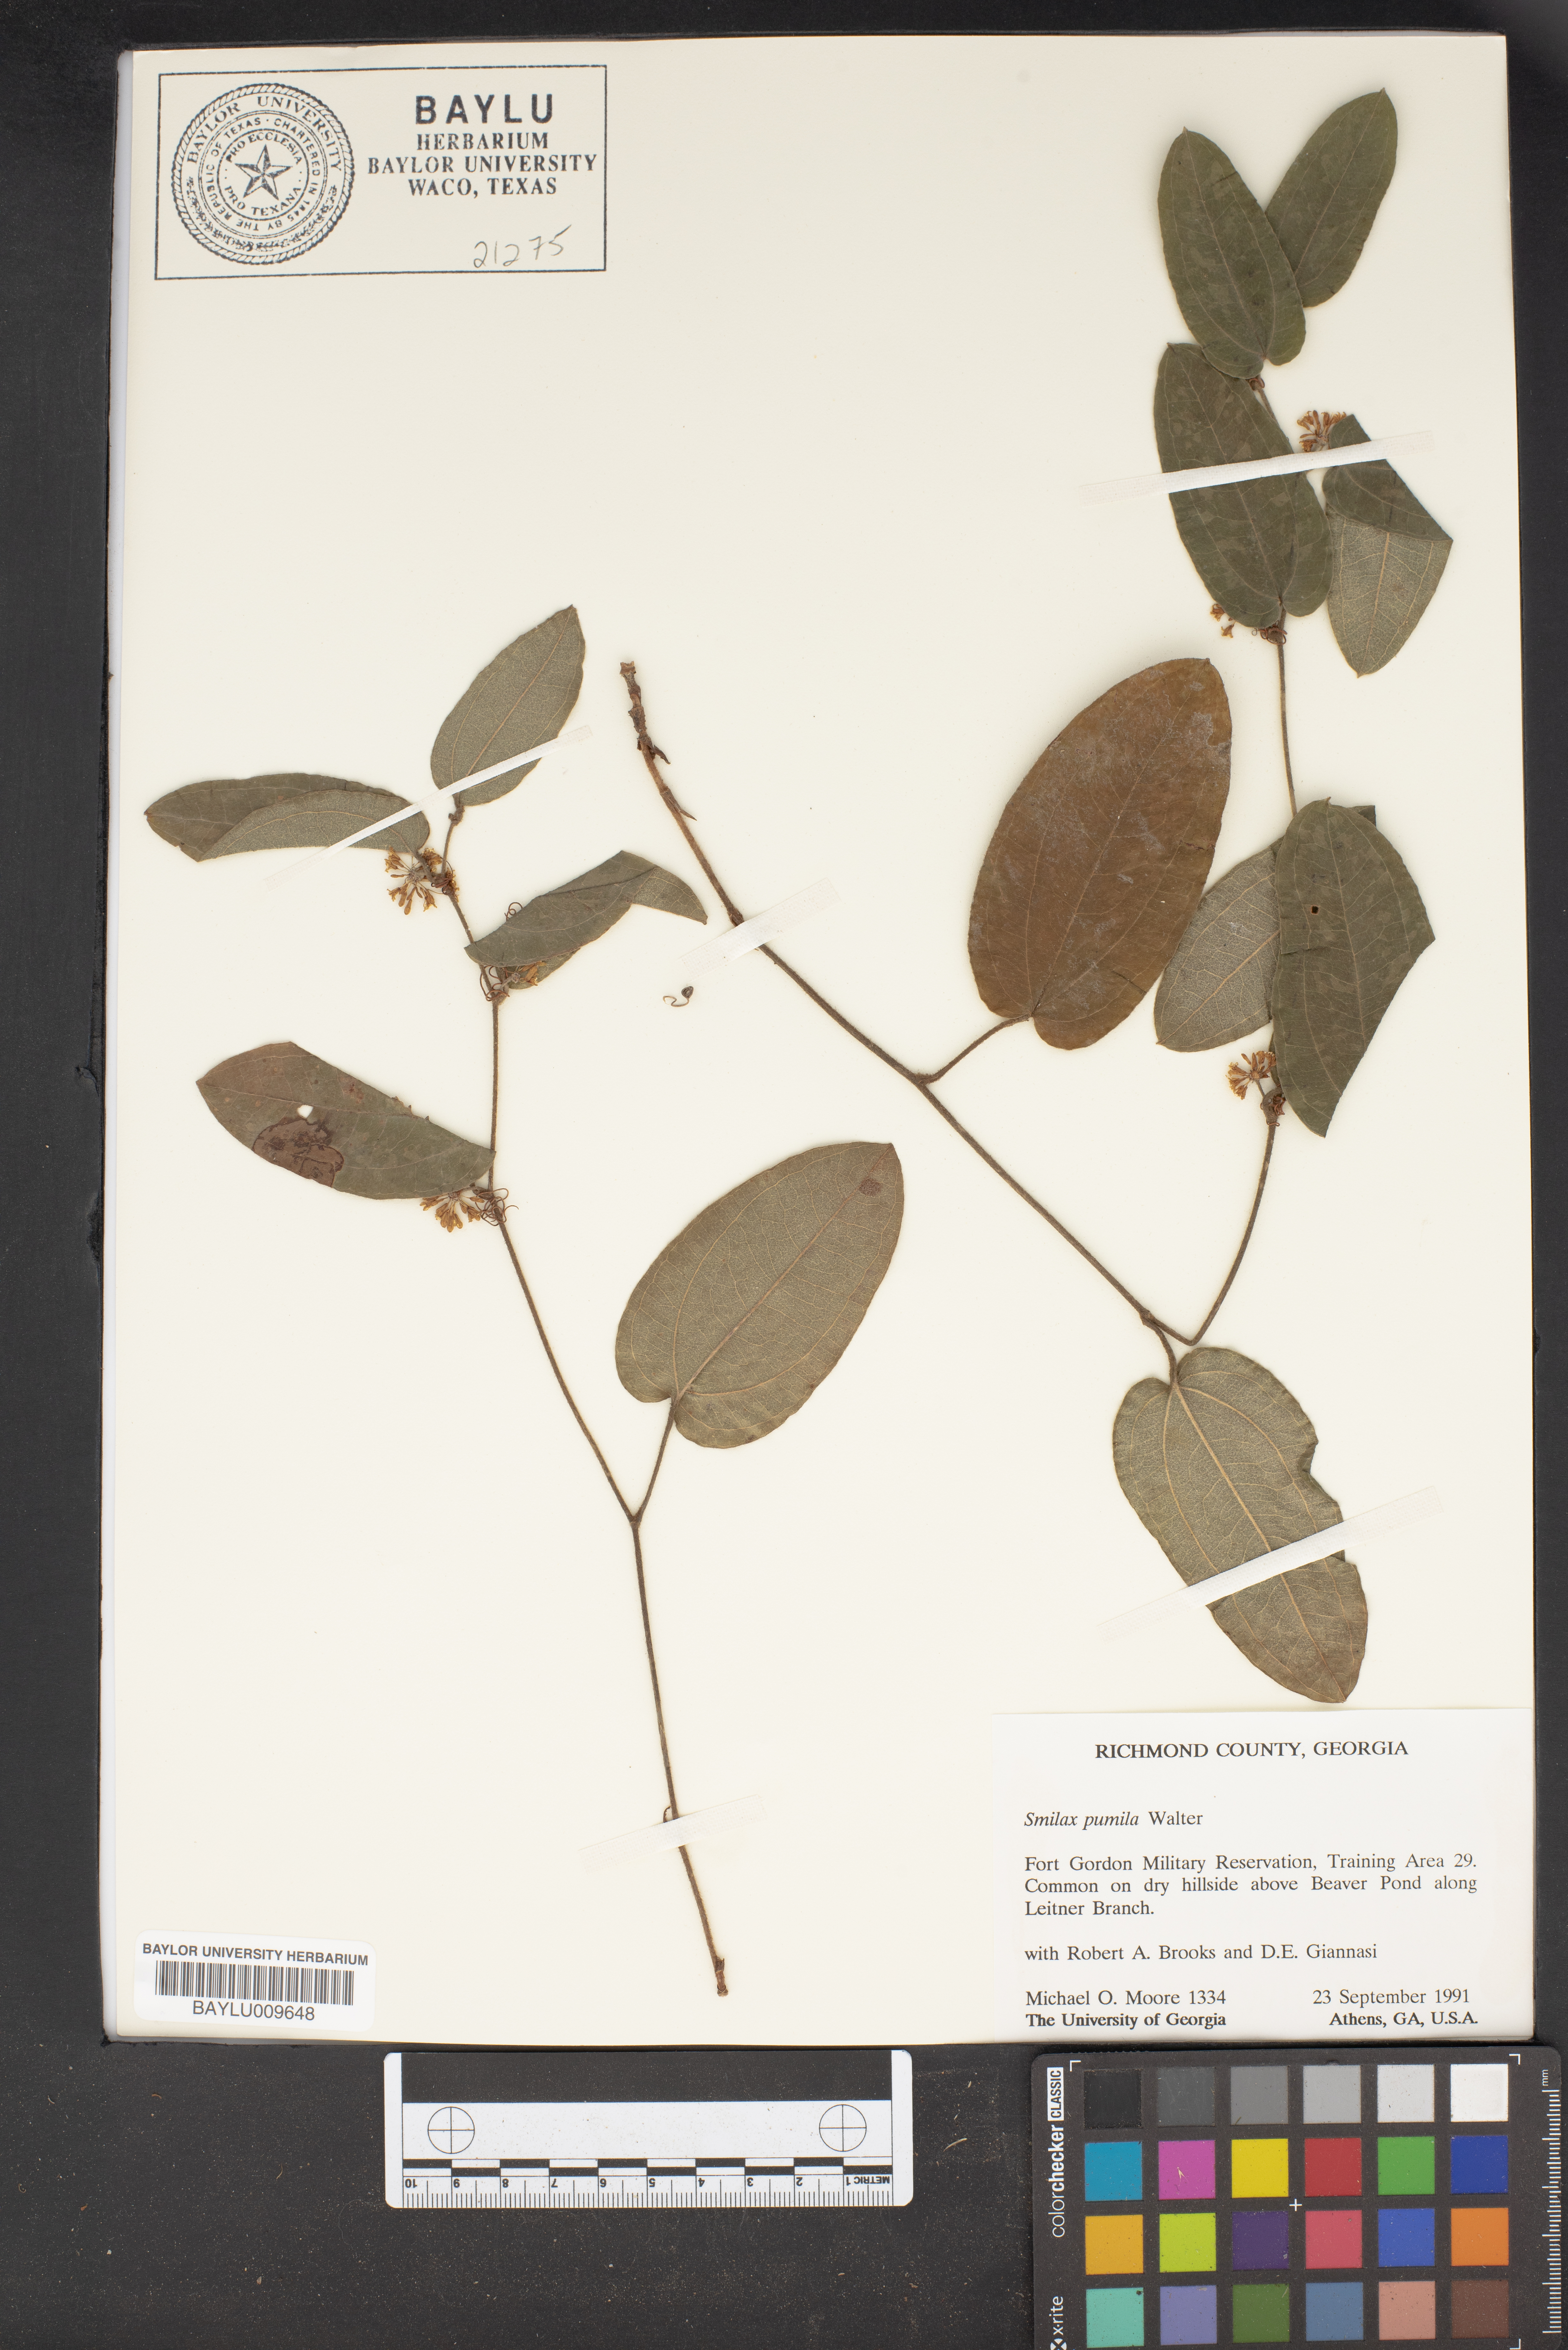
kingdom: Plantae
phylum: Tracheophyta
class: Liliopsida
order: Liliales
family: Smilacaceae
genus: Smilax
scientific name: Smilax pumila
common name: Sarsaparilla-vine
